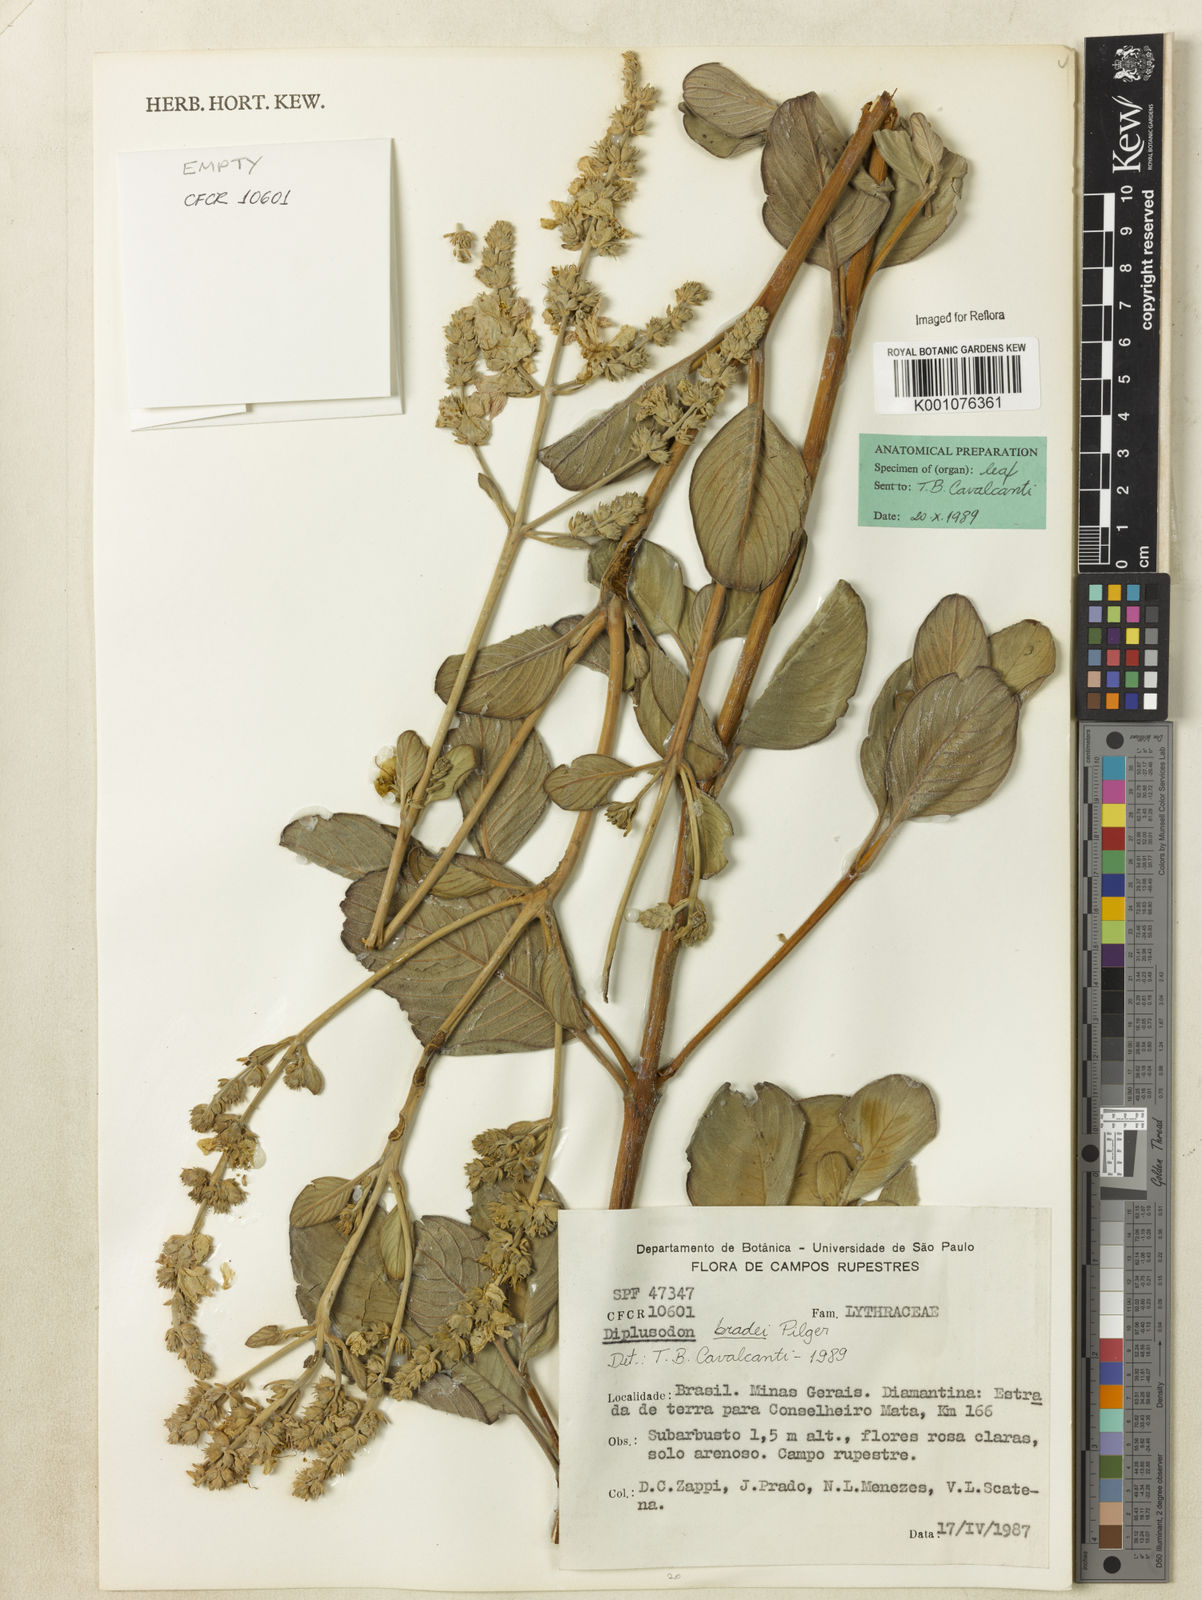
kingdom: Plantae
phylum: Tracheophyta
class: Magnoliopsida
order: Myrtales
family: Lythraceae
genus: Diplusodon
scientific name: Diplusodon bradei
